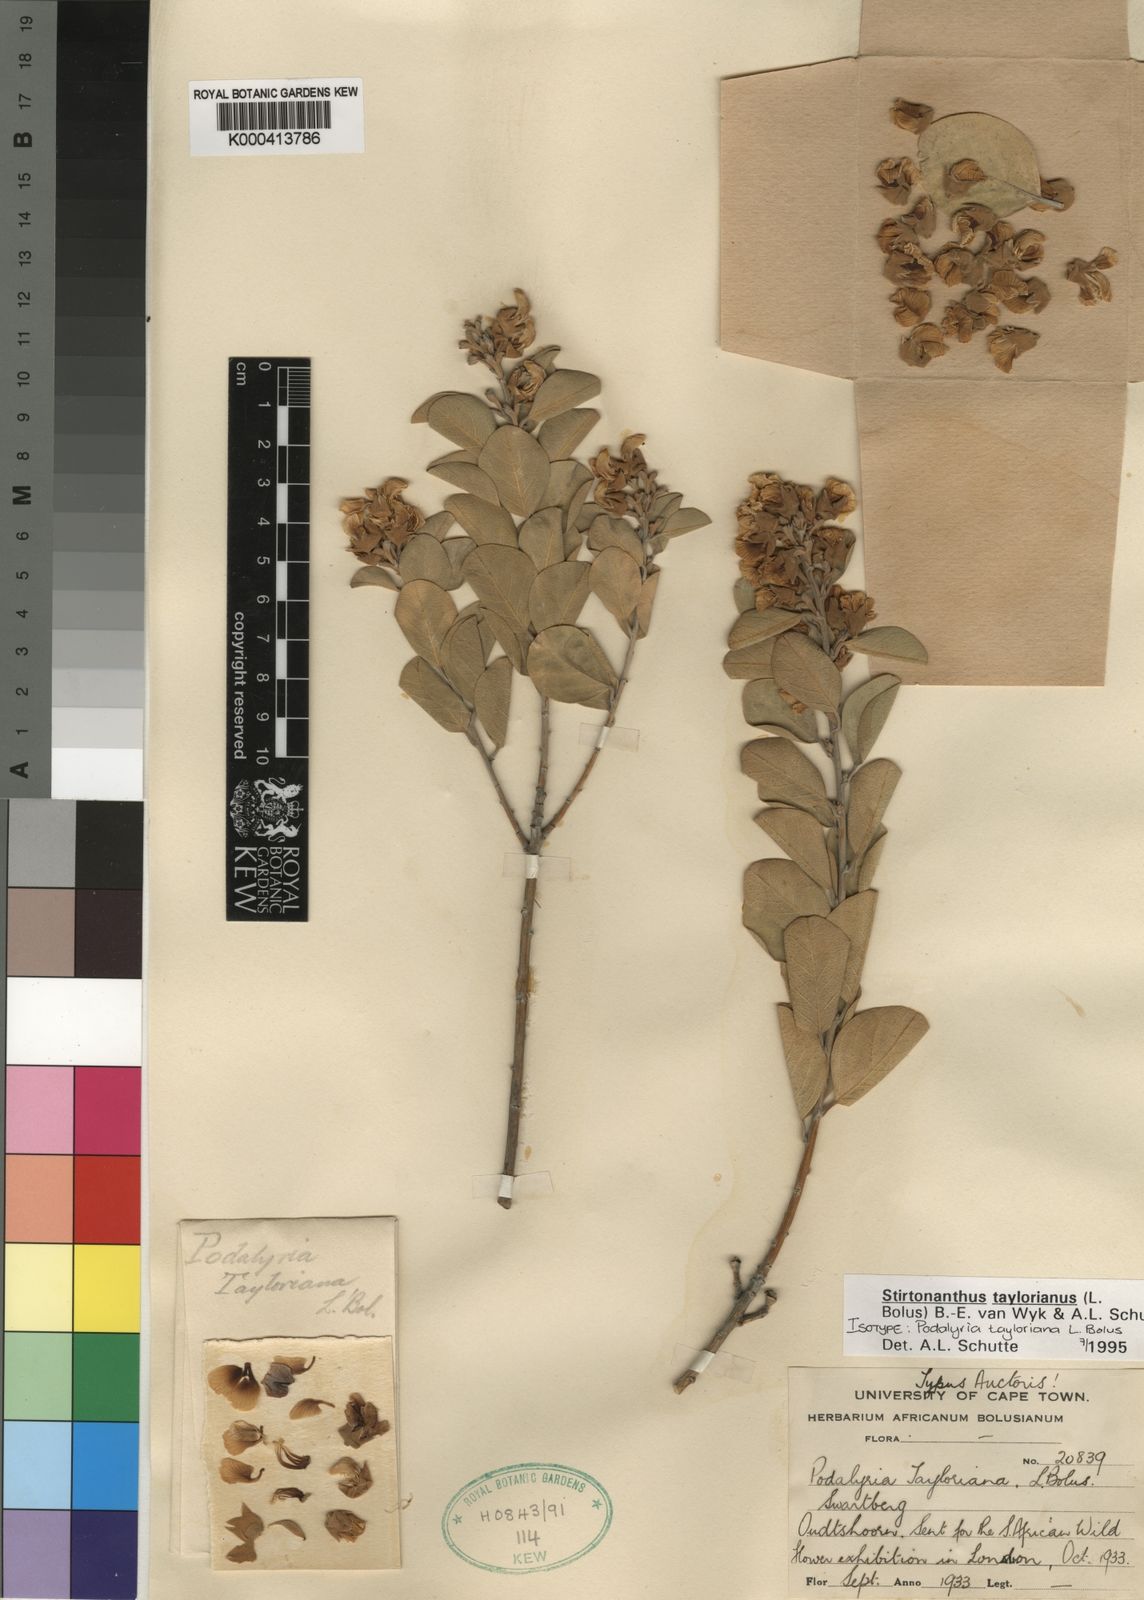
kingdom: Plantae
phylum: Tracheophyta
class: Magnoliopsida
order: Fabales
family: Fabaceae
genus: Stirtonanthus
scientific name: Stirtonanthus taylorianus
